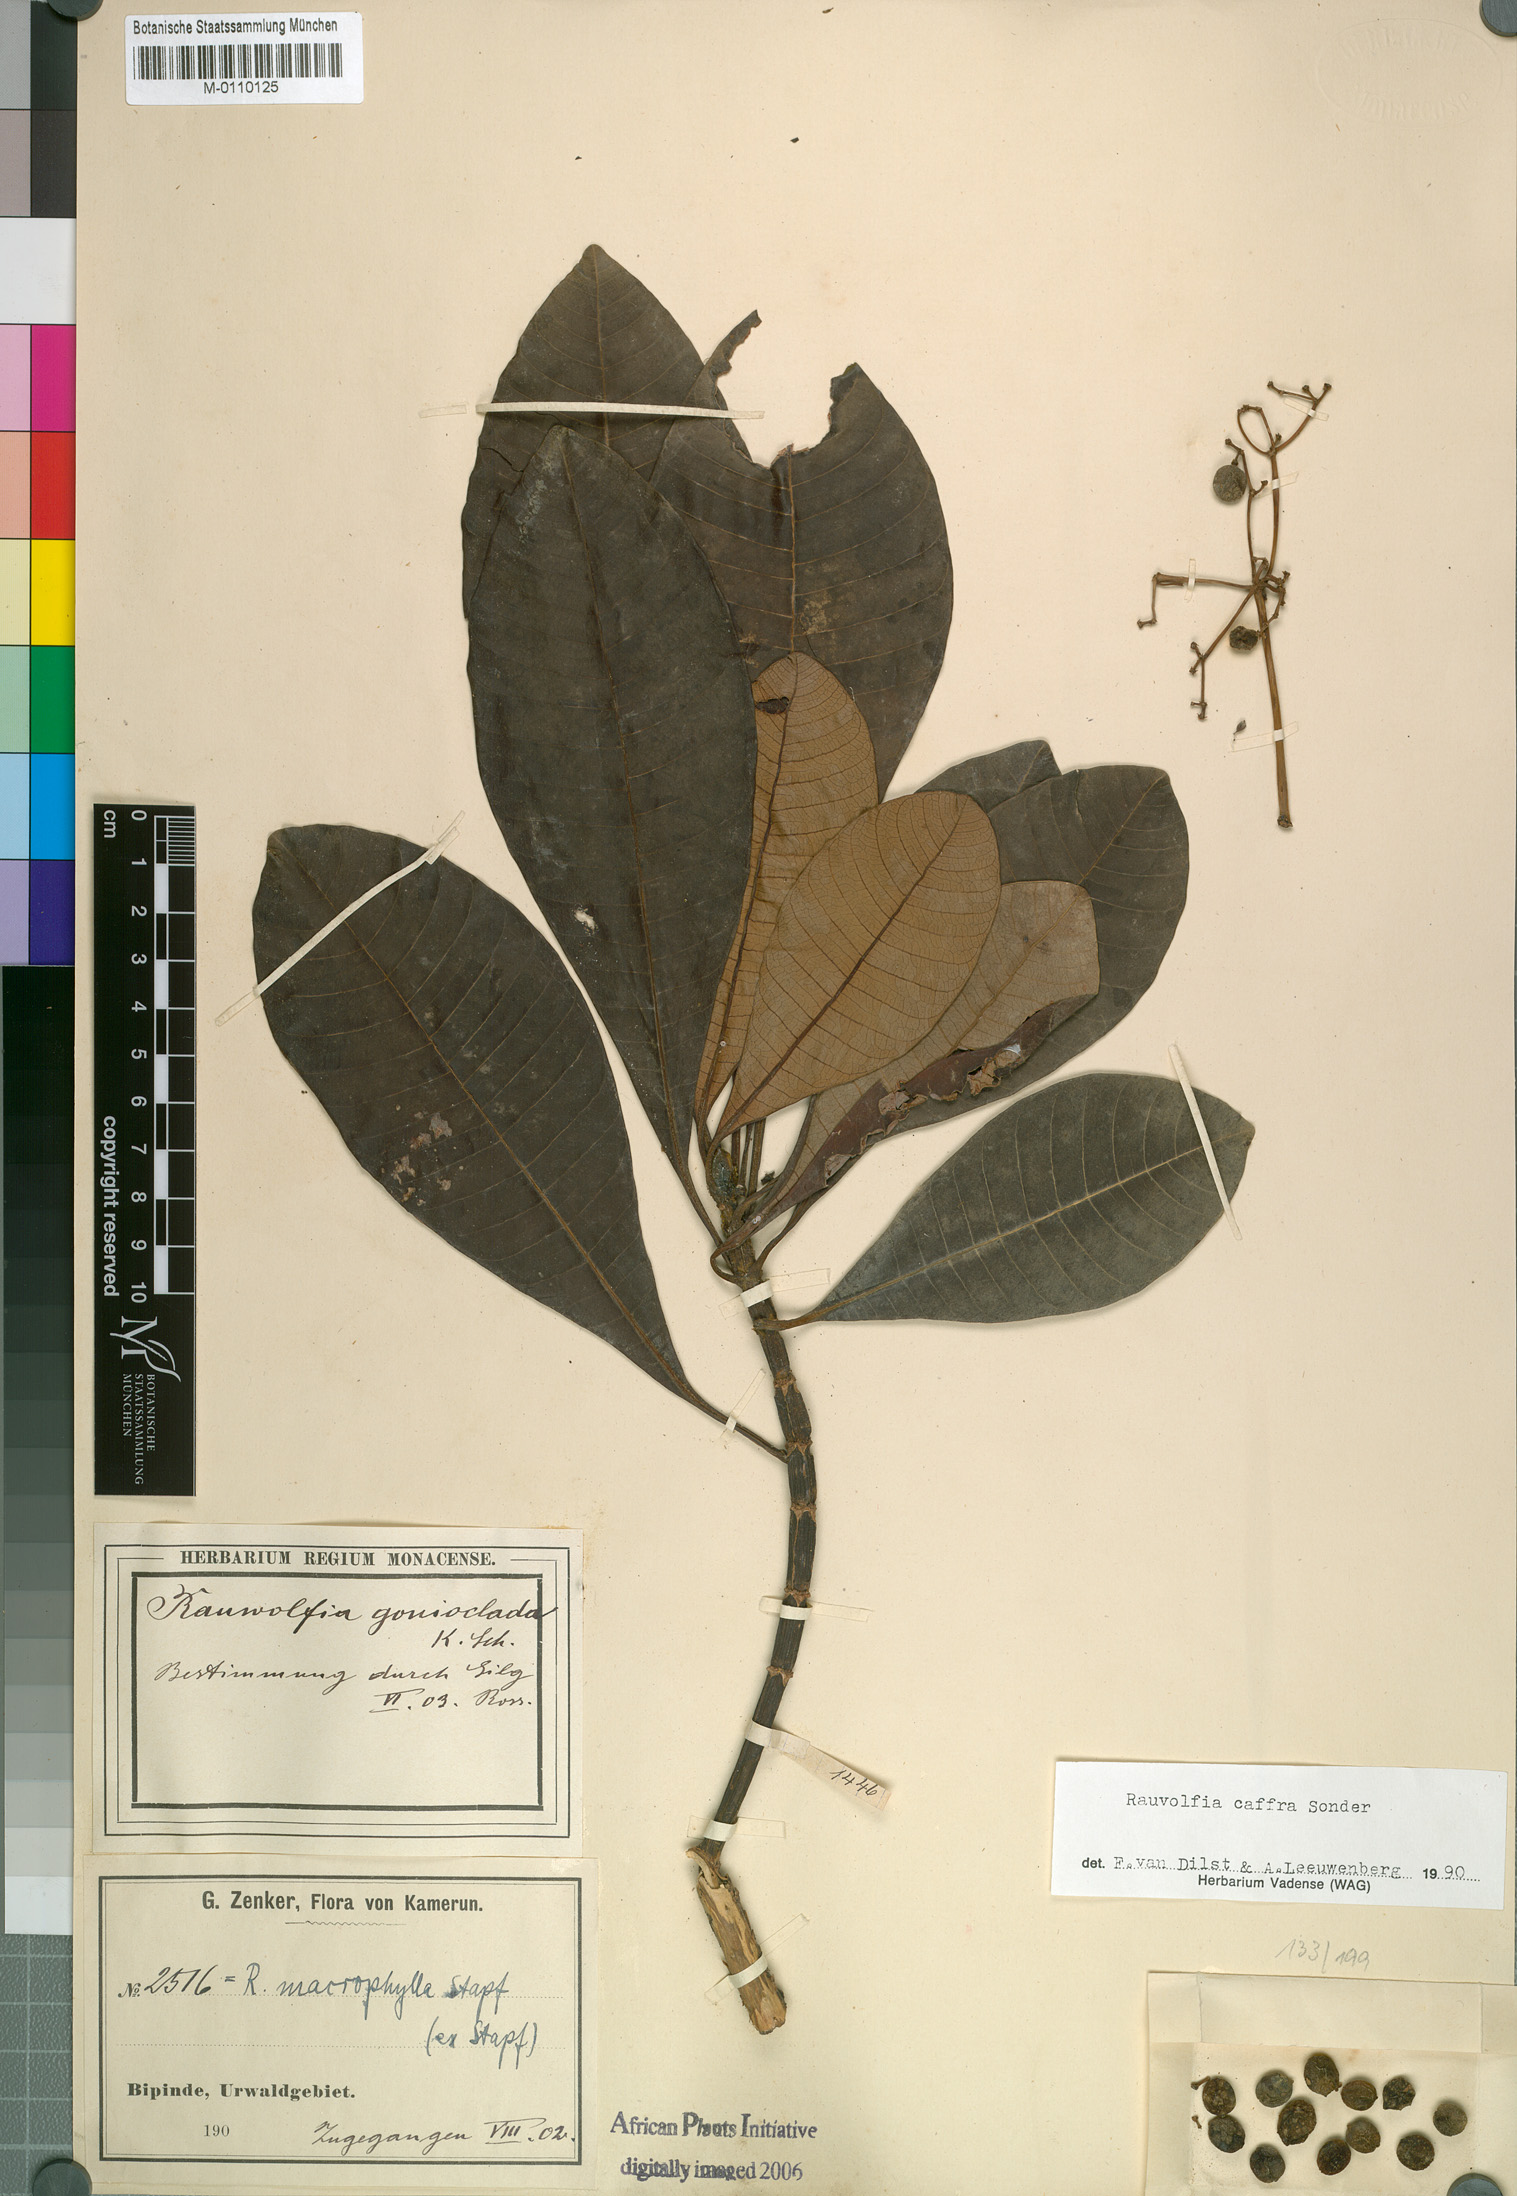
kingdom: Plantae
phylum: Tracheophyta
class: Magnoliopsida
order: Gentianales
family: Apocynaceae
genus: Rauvolfia
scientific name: Rauvolfia caffra
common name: Quininetree
